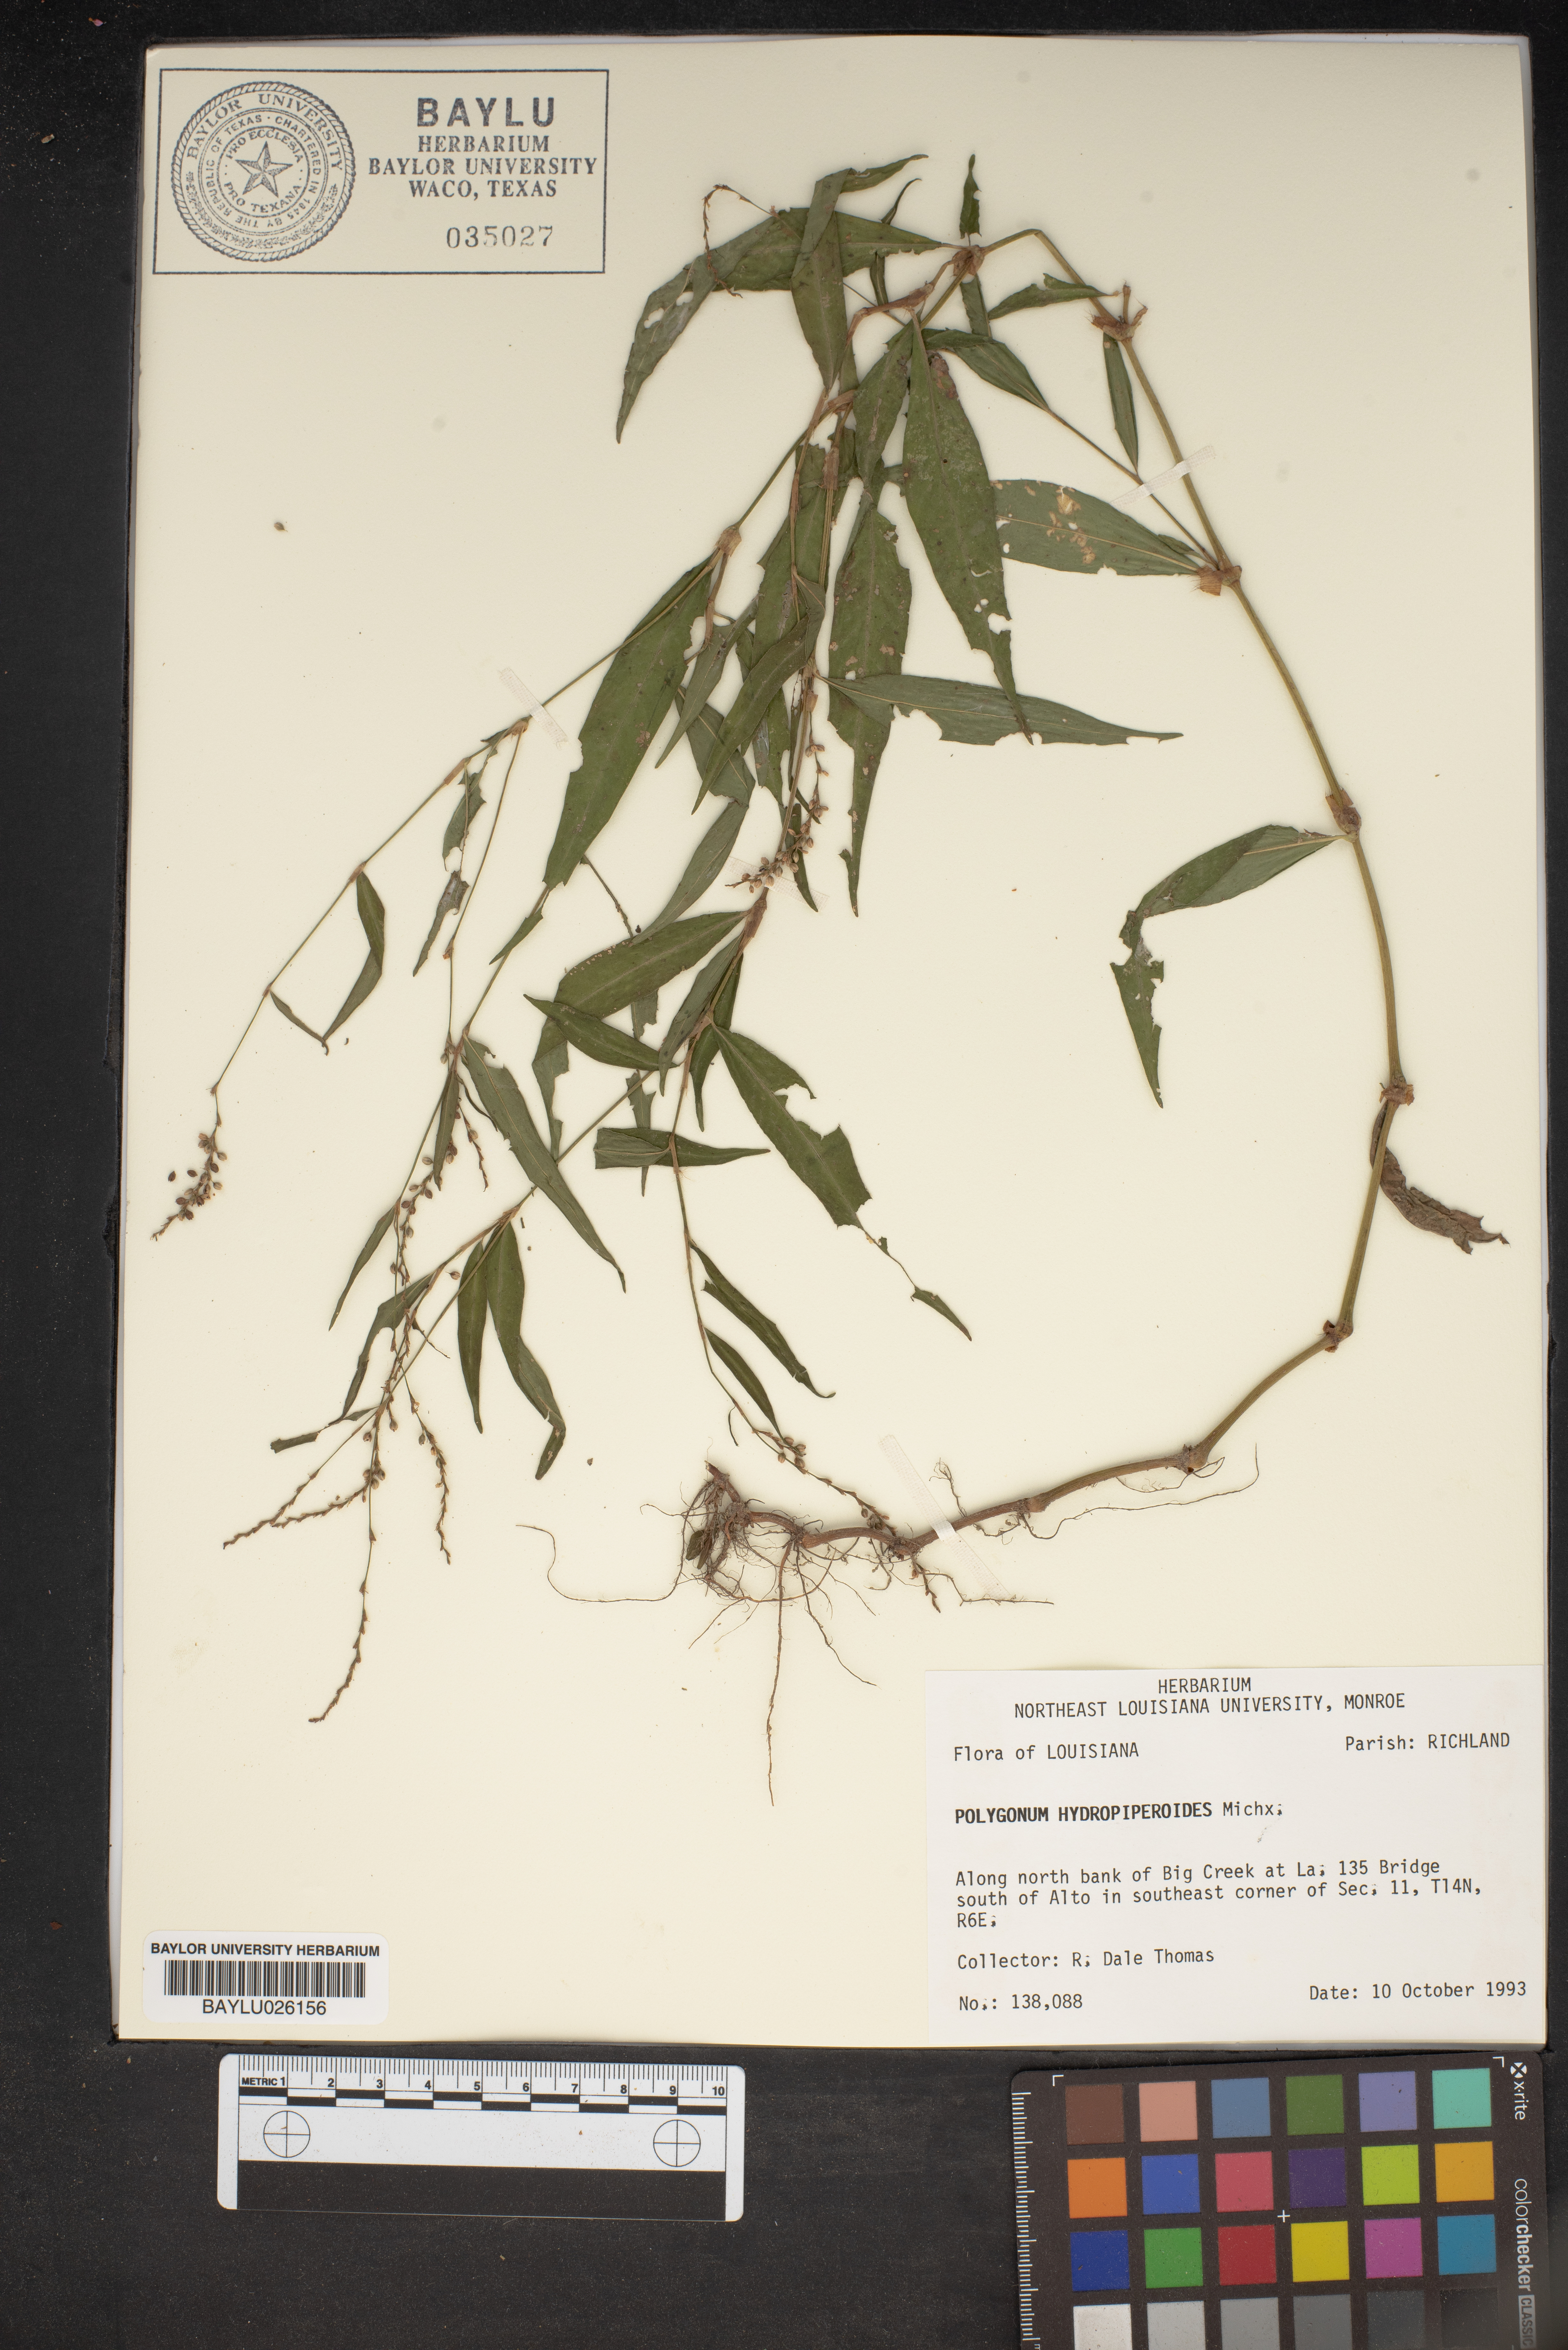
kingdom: Plantae
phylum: Tracheophyta
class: Magnoliopsida
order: Caryophyllales
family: Polygonaceae
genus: Persicaria
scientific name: Persicaria hydropiperoides
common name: Swamp smartweed
